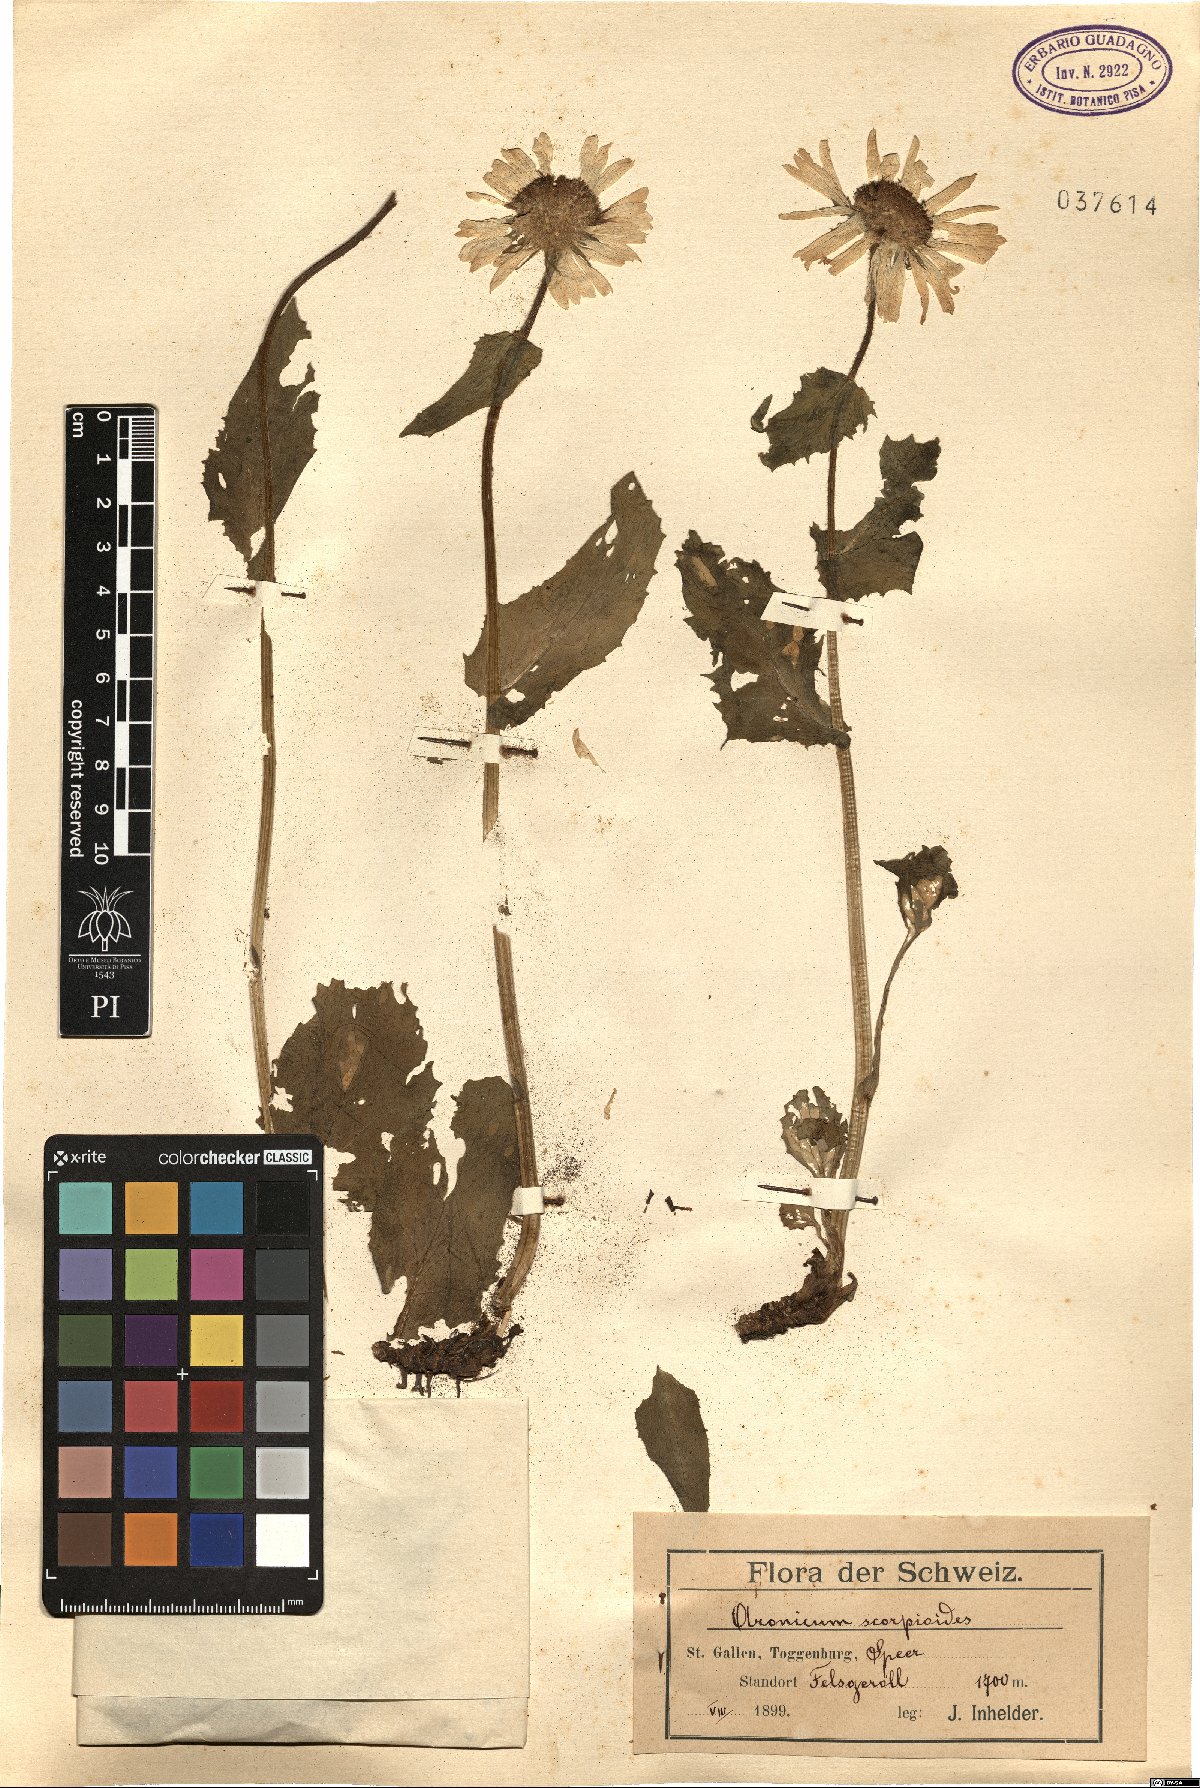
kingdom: Plantae
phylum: Tracheophyta
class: Magnoliopsida
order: Asterales
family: Asteraceae
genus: Doronicum
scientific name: Doronicum grandiflorum
